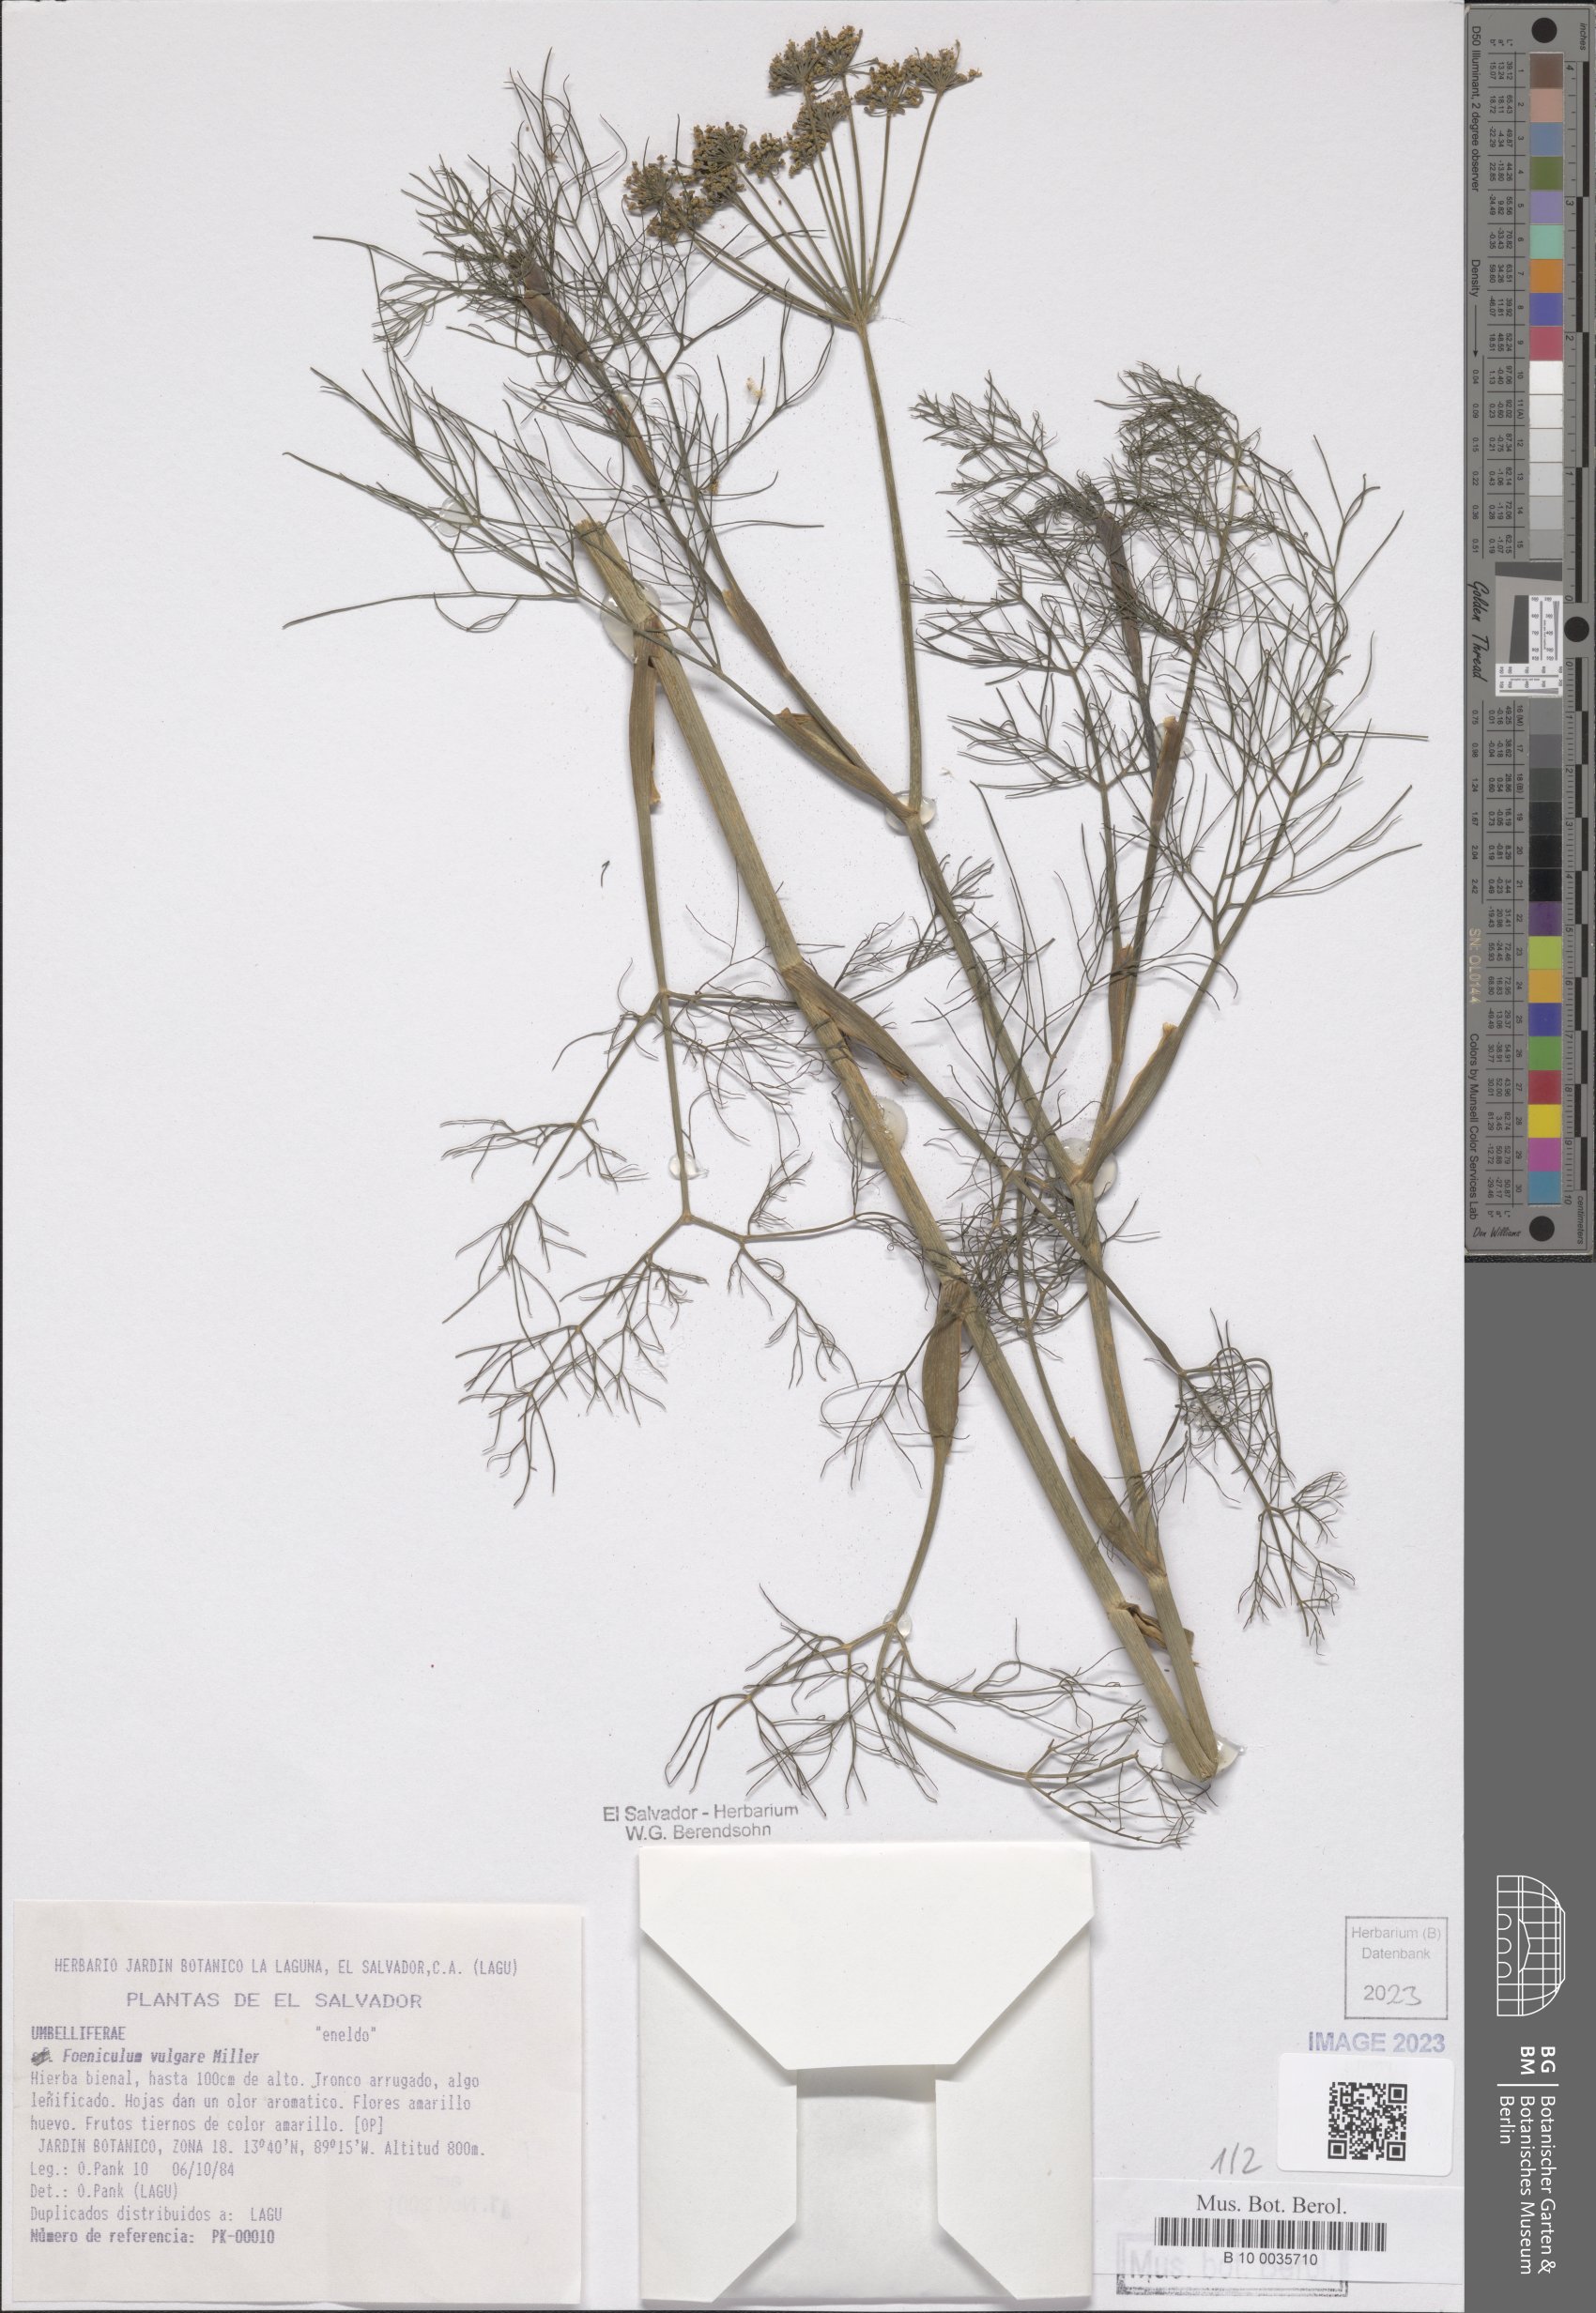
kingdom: Plantae
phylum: Tracheophyta
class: Magnoliopsida
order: Apiales
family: Apiaceae
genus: Foeniculum
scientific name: Foeniculum vulgare
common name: Fennel
